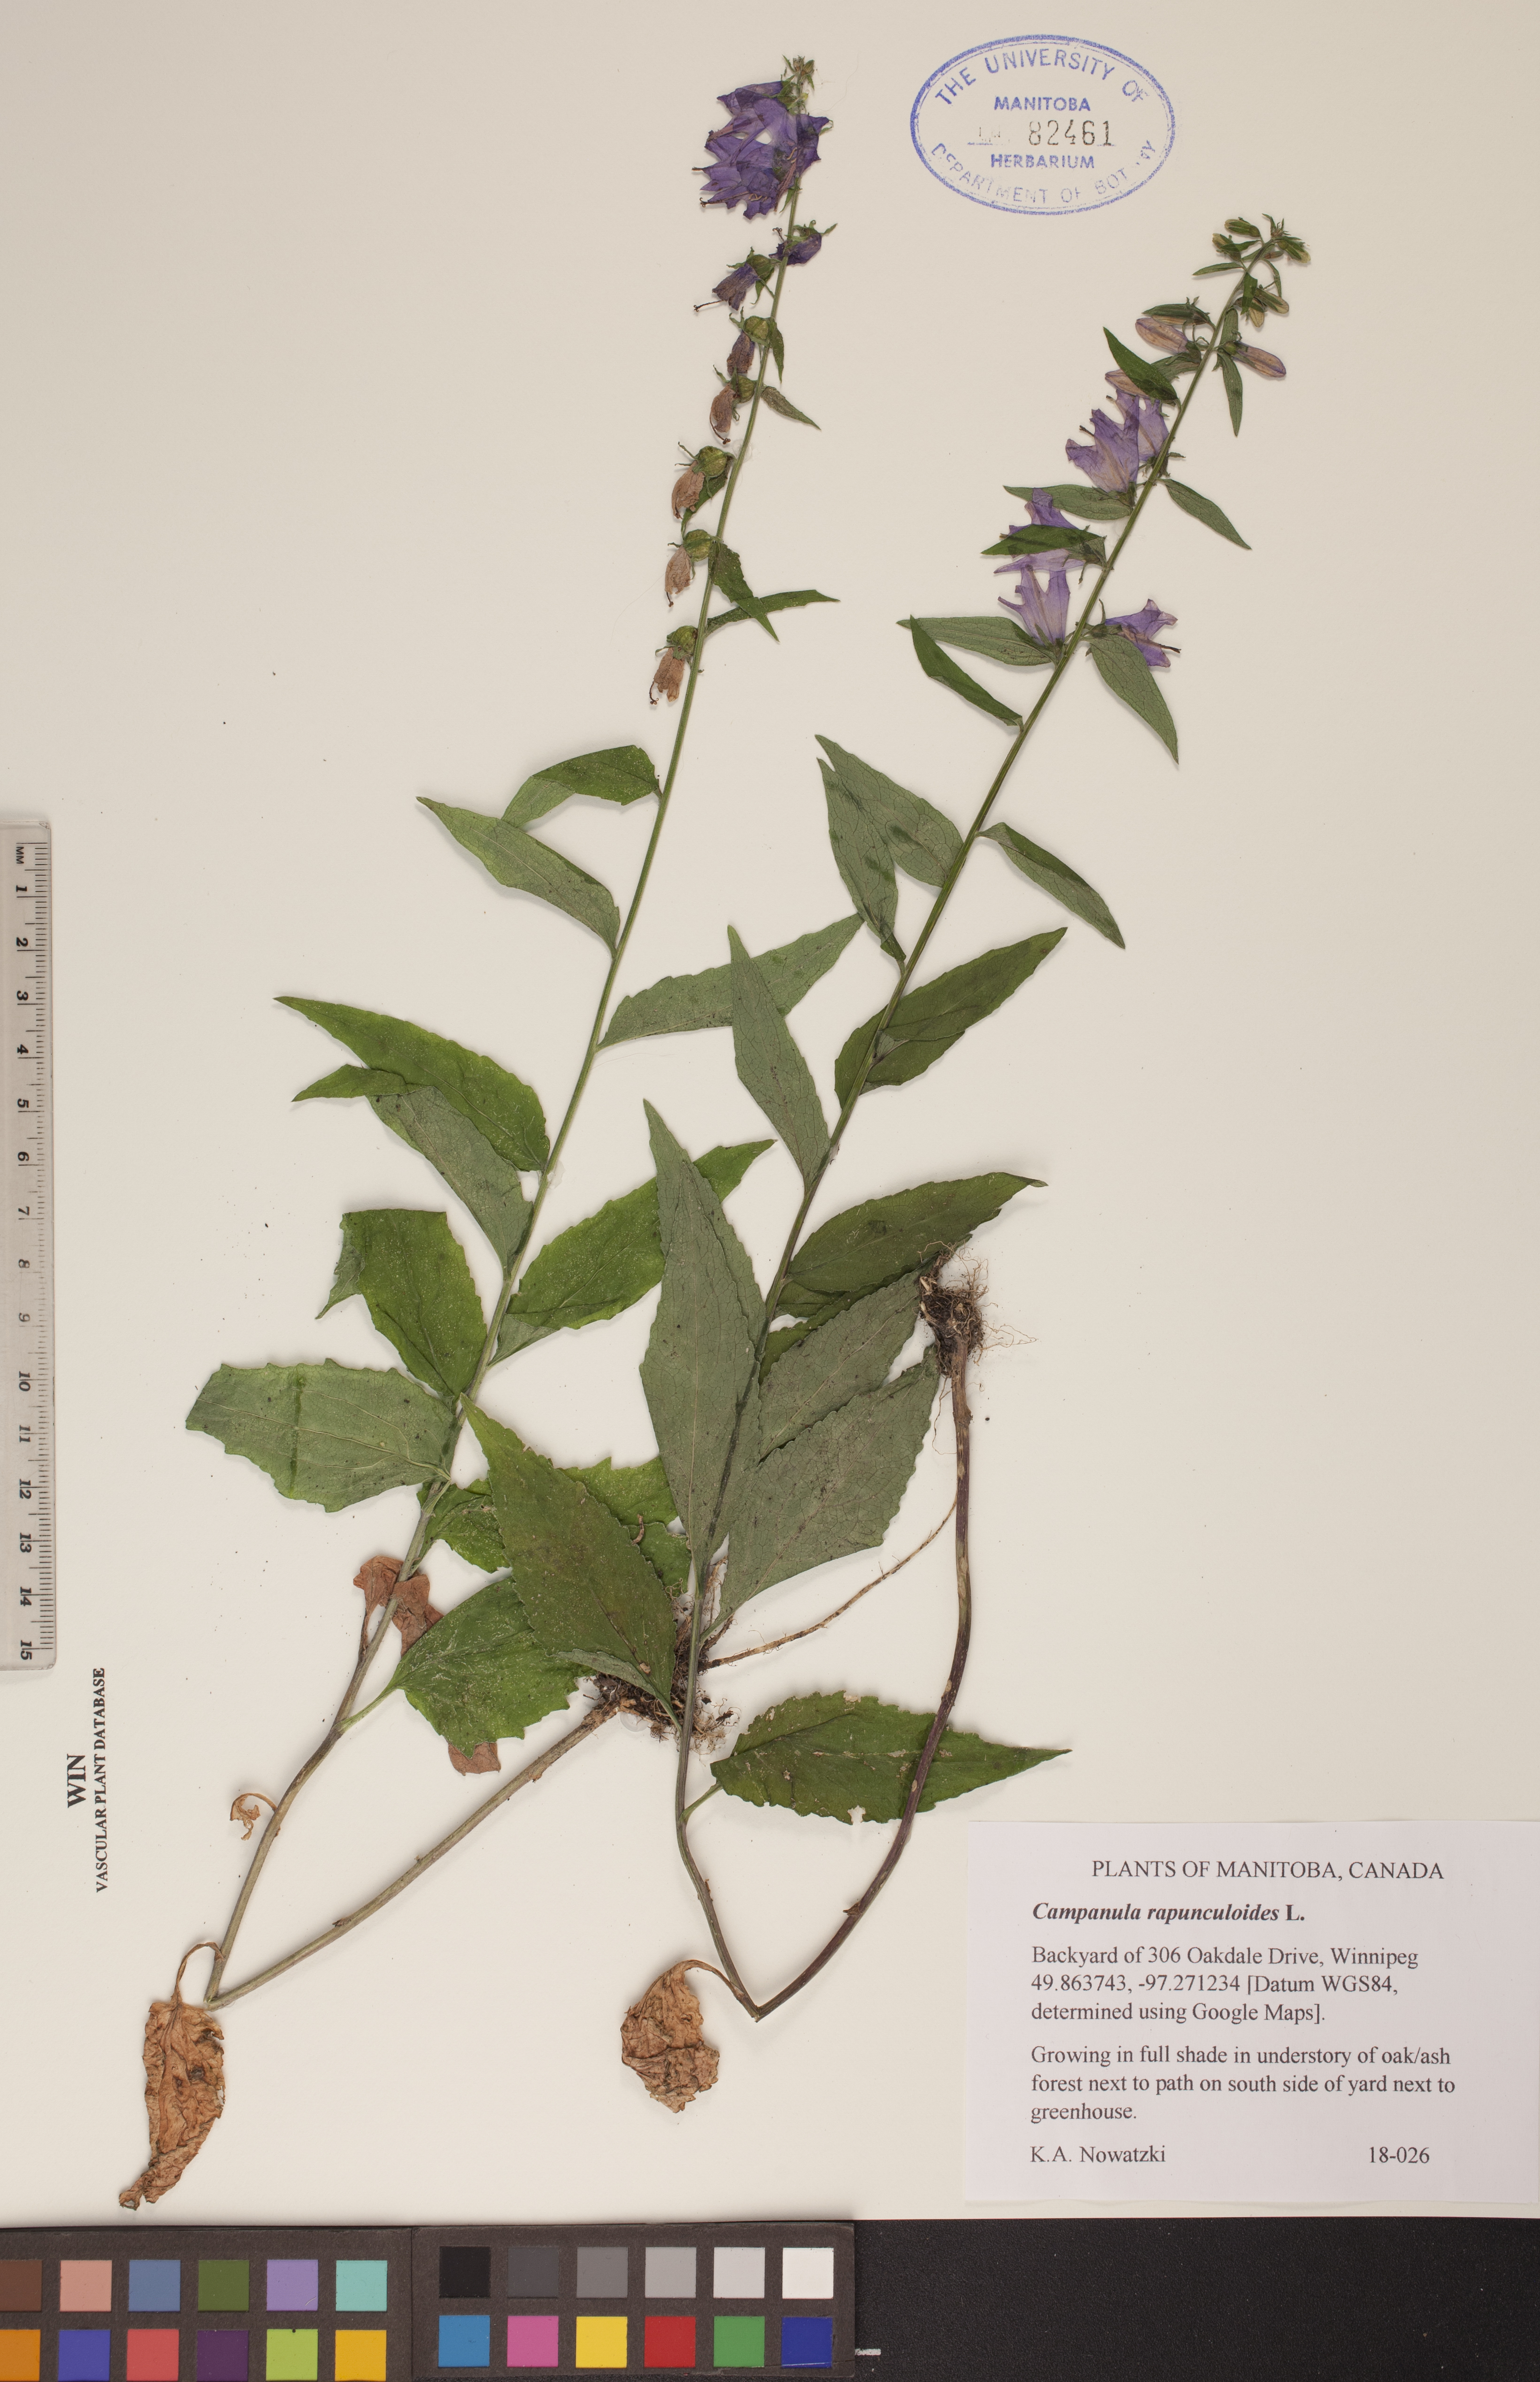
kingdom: Plantae
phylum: Tracheophyta
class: Magnoliopsida
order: Asterales
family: Campanulaceae
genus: Campanula
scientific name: Campanula rapunculoides
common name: Creeping bellflower
